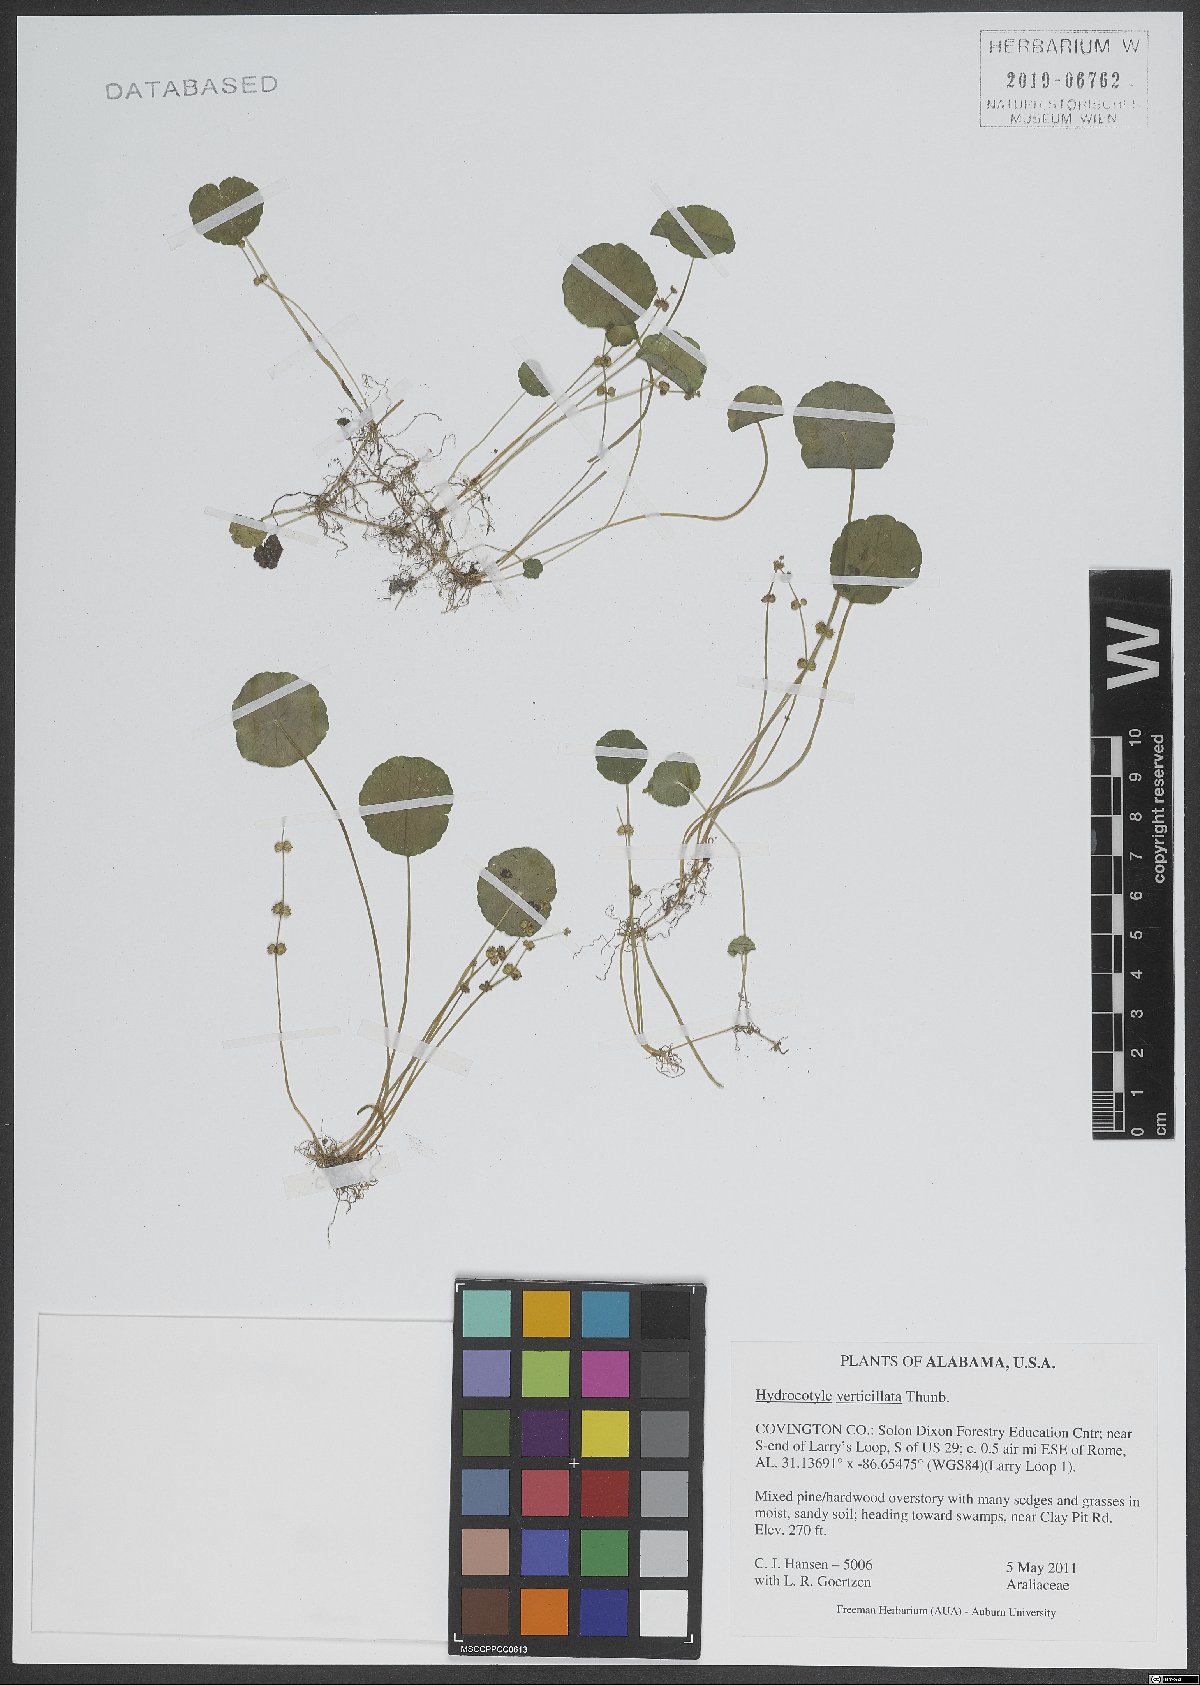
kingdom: Plantae
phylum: Tracheophyta
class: Magnoliopsida
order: Apiales
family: Araliaceae
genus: Hydrocotyle
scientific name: Hydrocotyle verticillata
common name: Whorled marshpennywort
